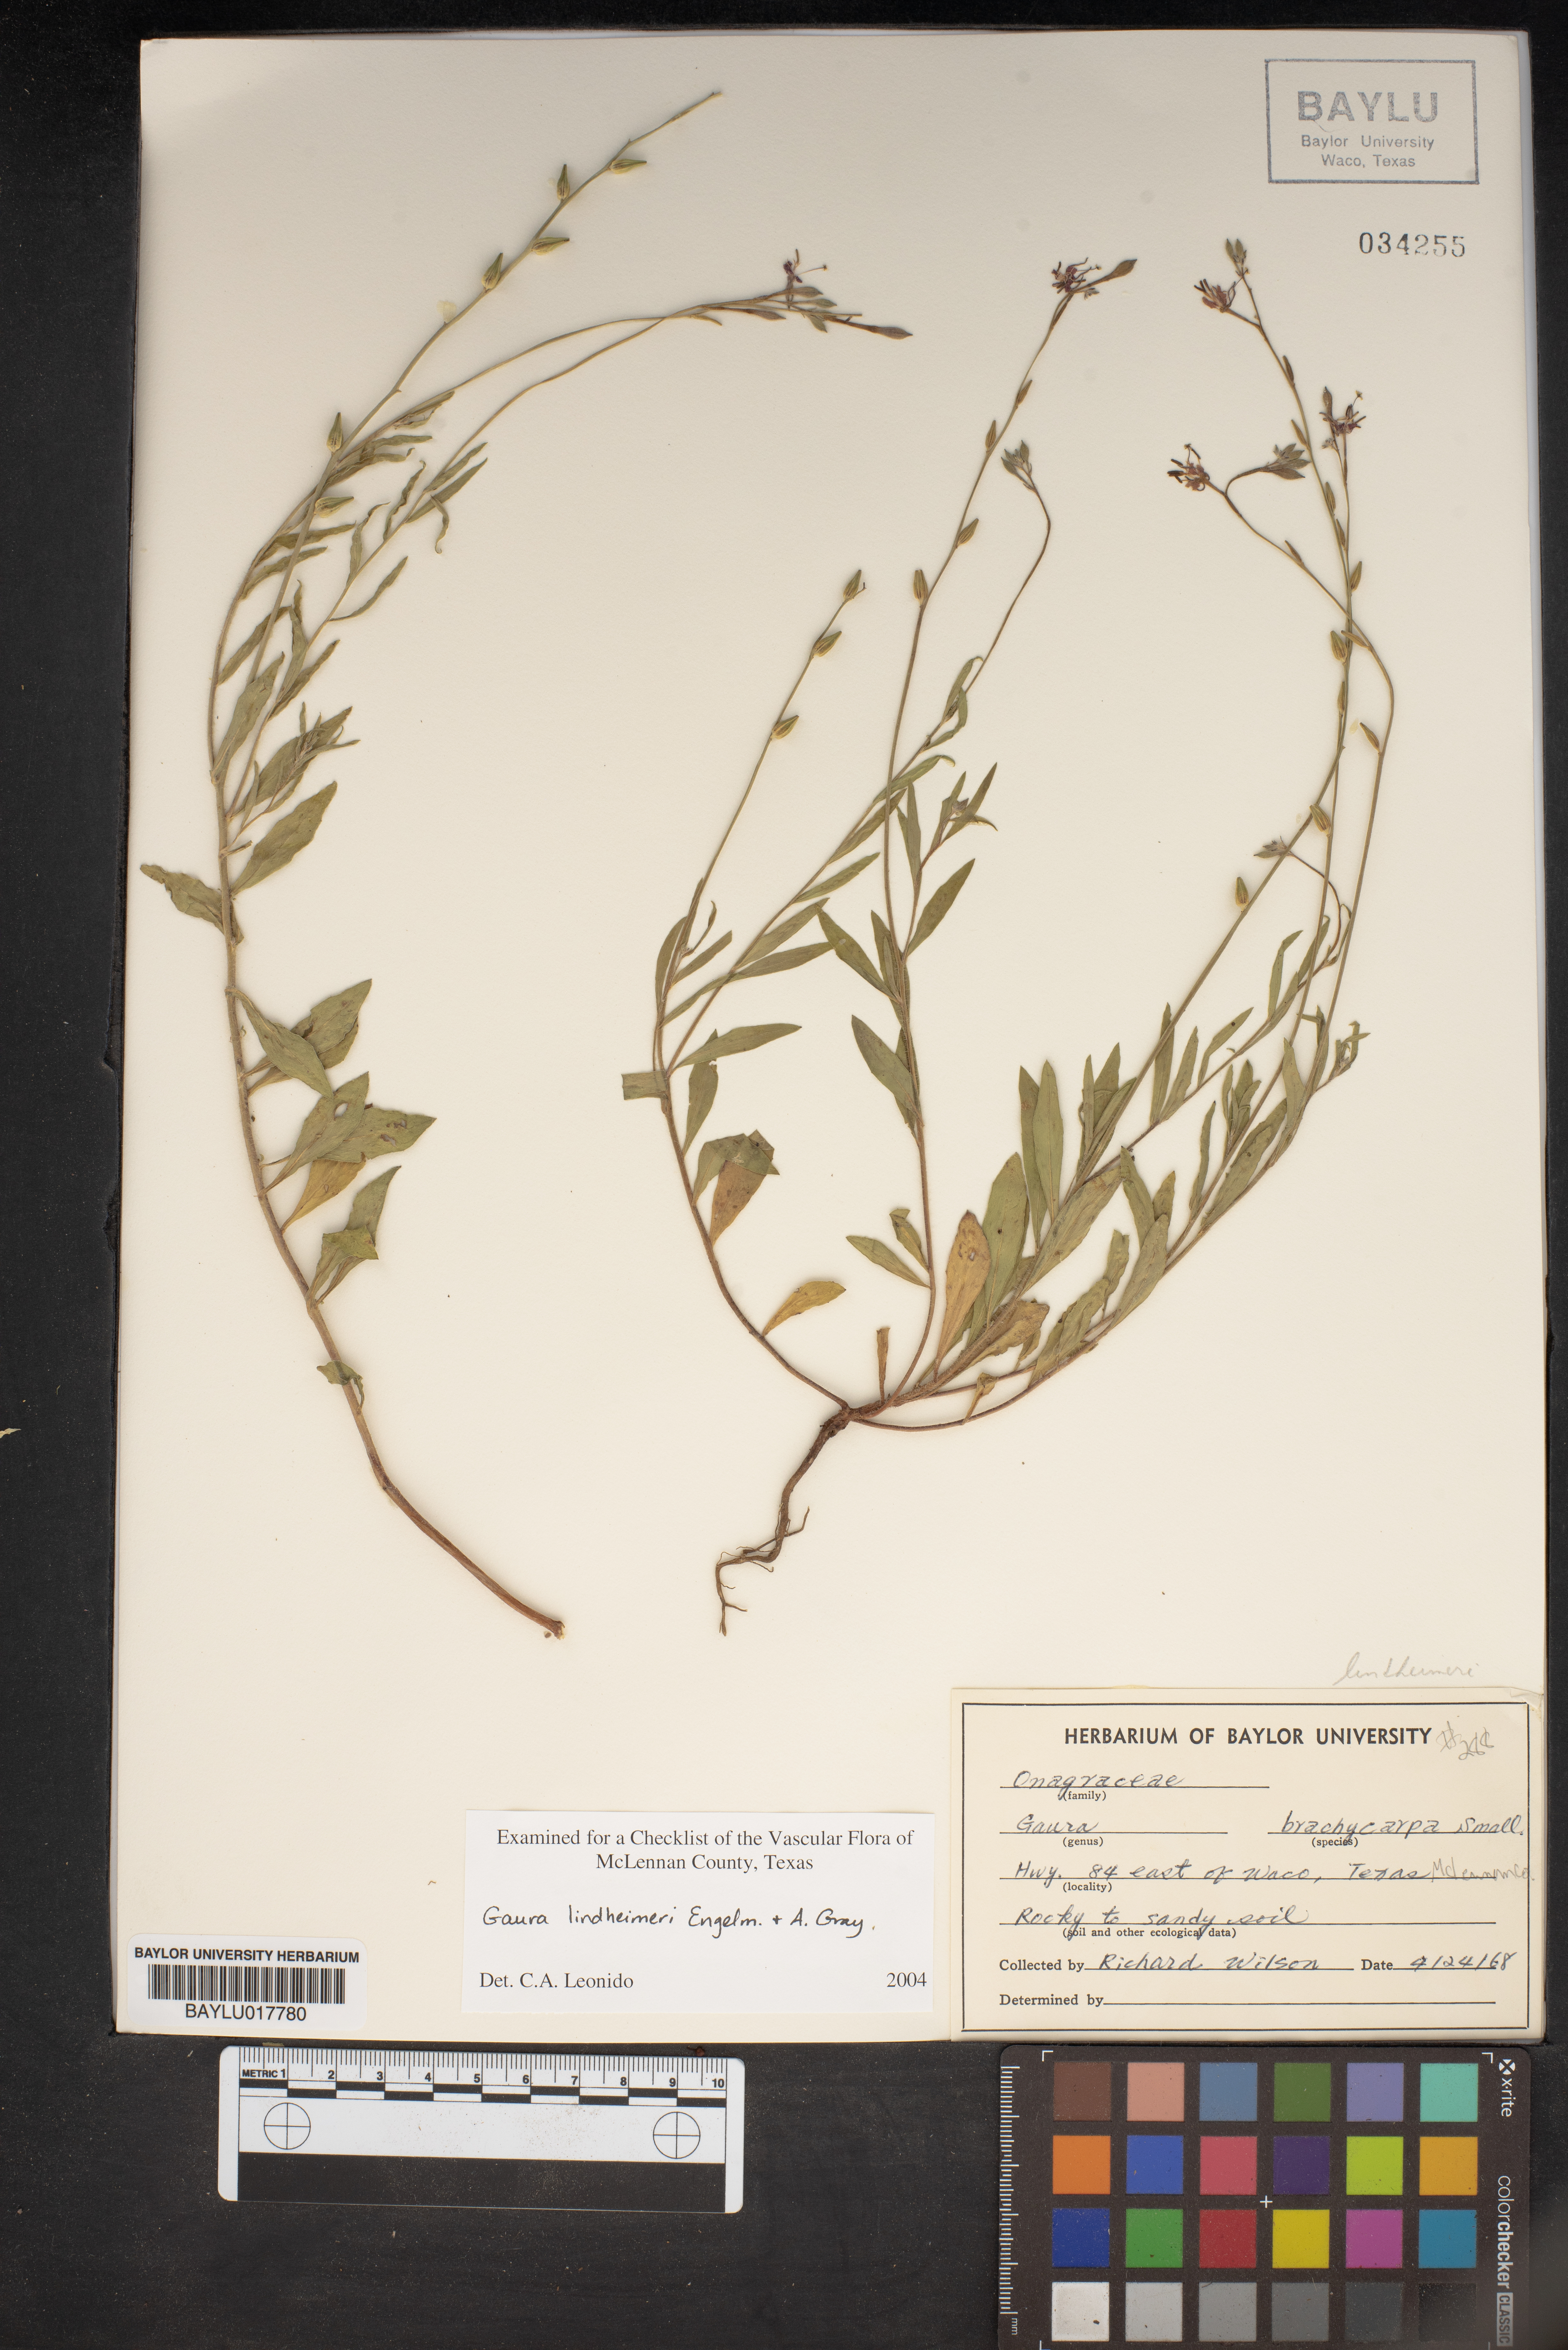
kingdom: Plantae
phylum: Tracheophyta
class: Magnoliopsida
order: Myrtales
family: Onagraceae
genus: Oenothera
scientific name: Oenothera lindheimeri
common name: Lindheimer's beeblossom
